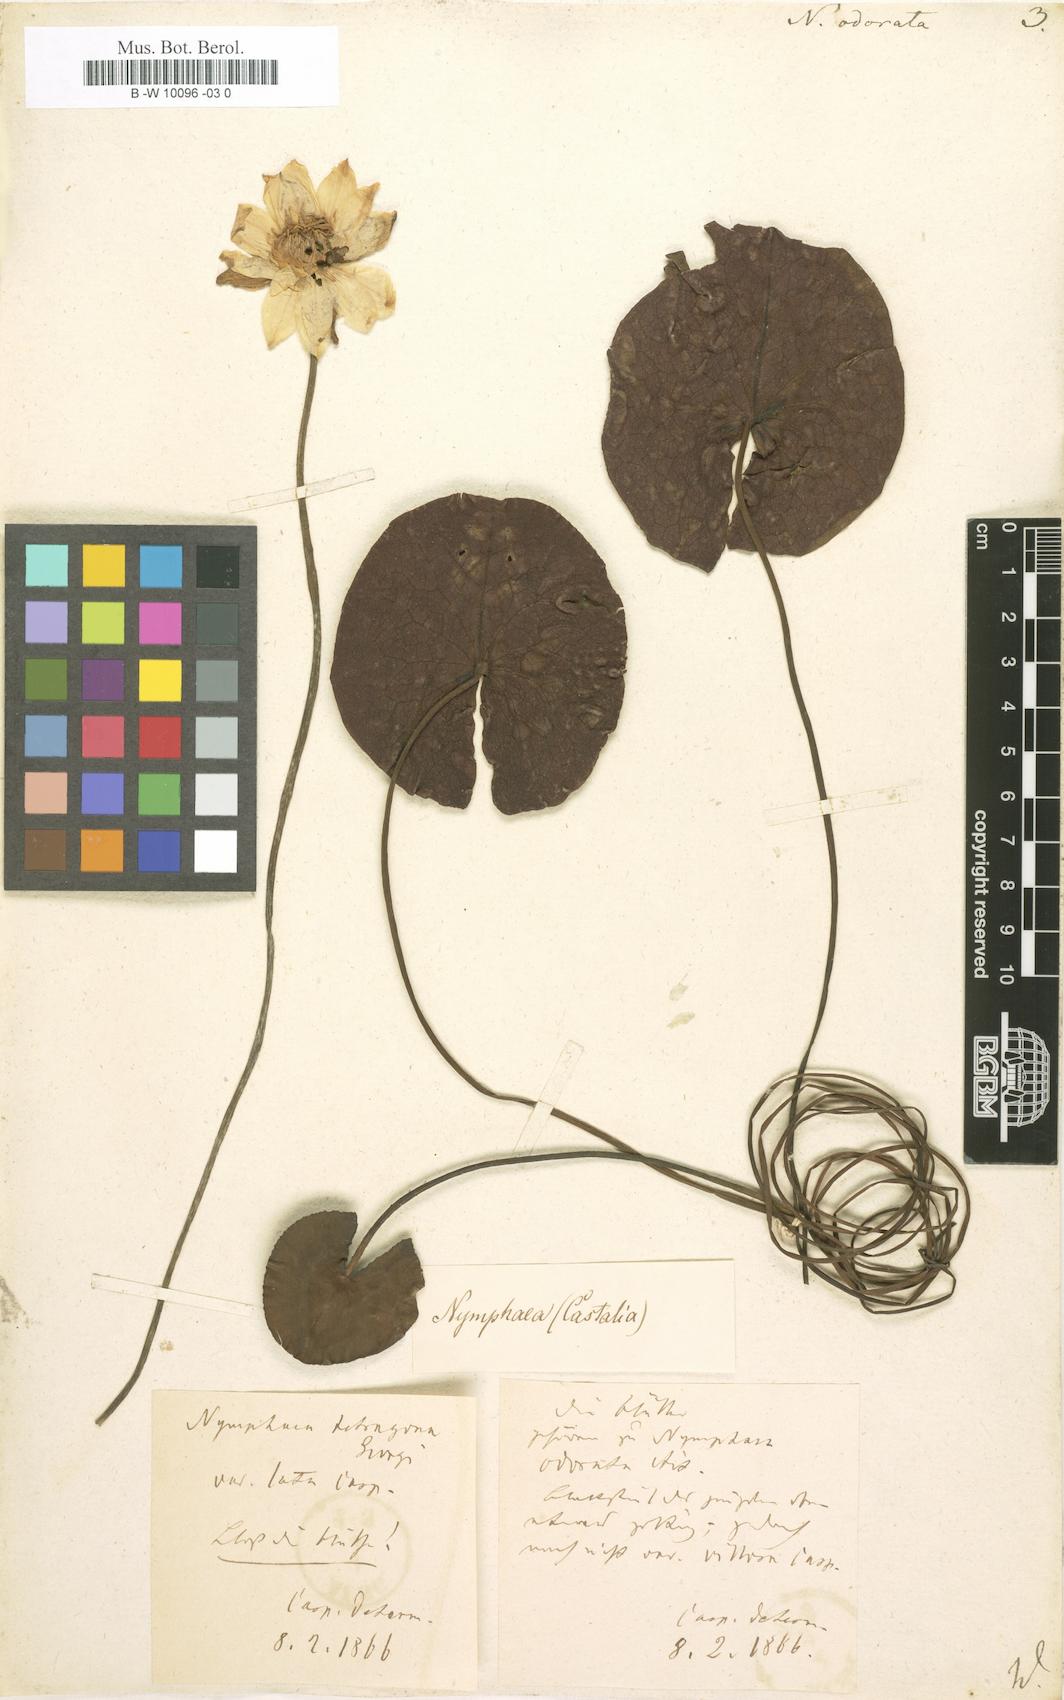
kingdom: Plantae
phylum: Tracheophyta
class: Magnoliopsida
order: Nymphaeales
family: Nymphaeaceae
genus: Nymphaea
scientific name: Nymphaea odorata
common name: Fragrant water-lily
